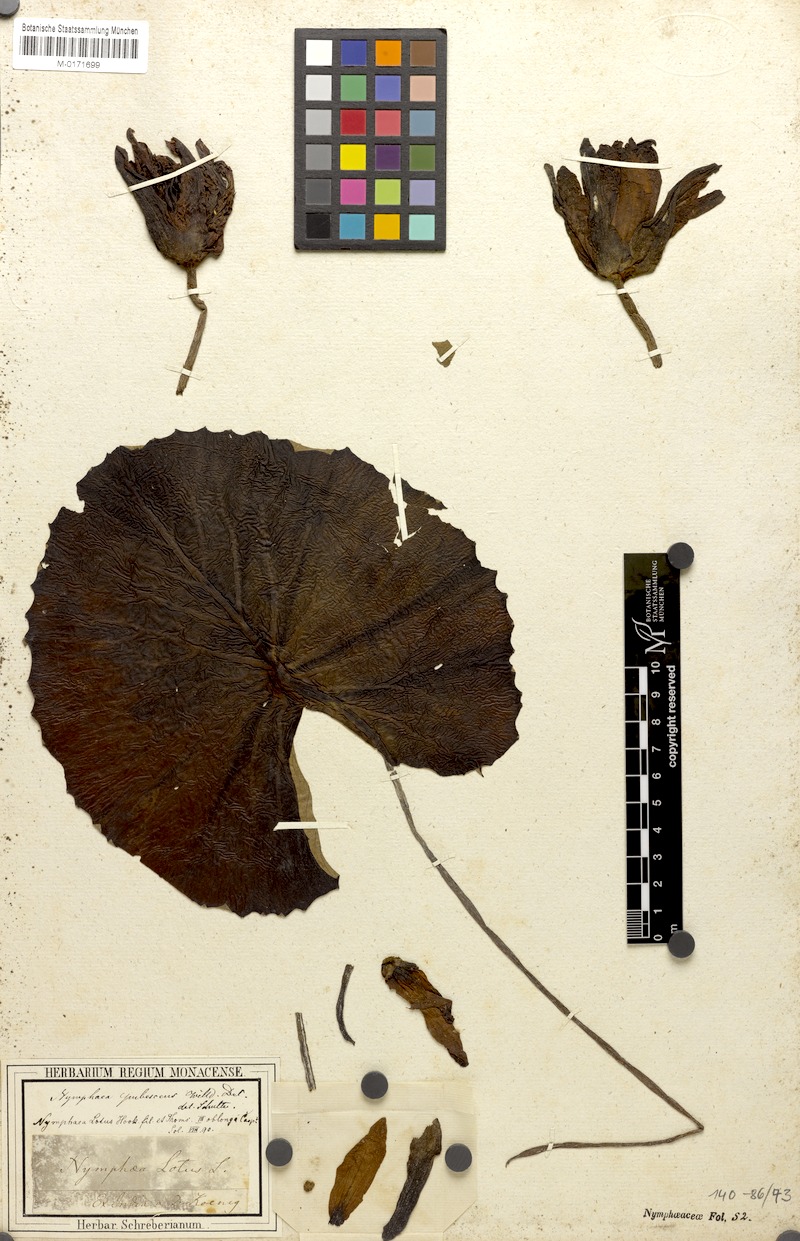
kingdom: Plantae
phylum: Tracheophyta
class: Magnoliopsida
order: Nymphaeales
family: Nymphaeaceae
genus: Nymphaea
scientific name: Nymphaea pubescens
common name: Hairy water lily
